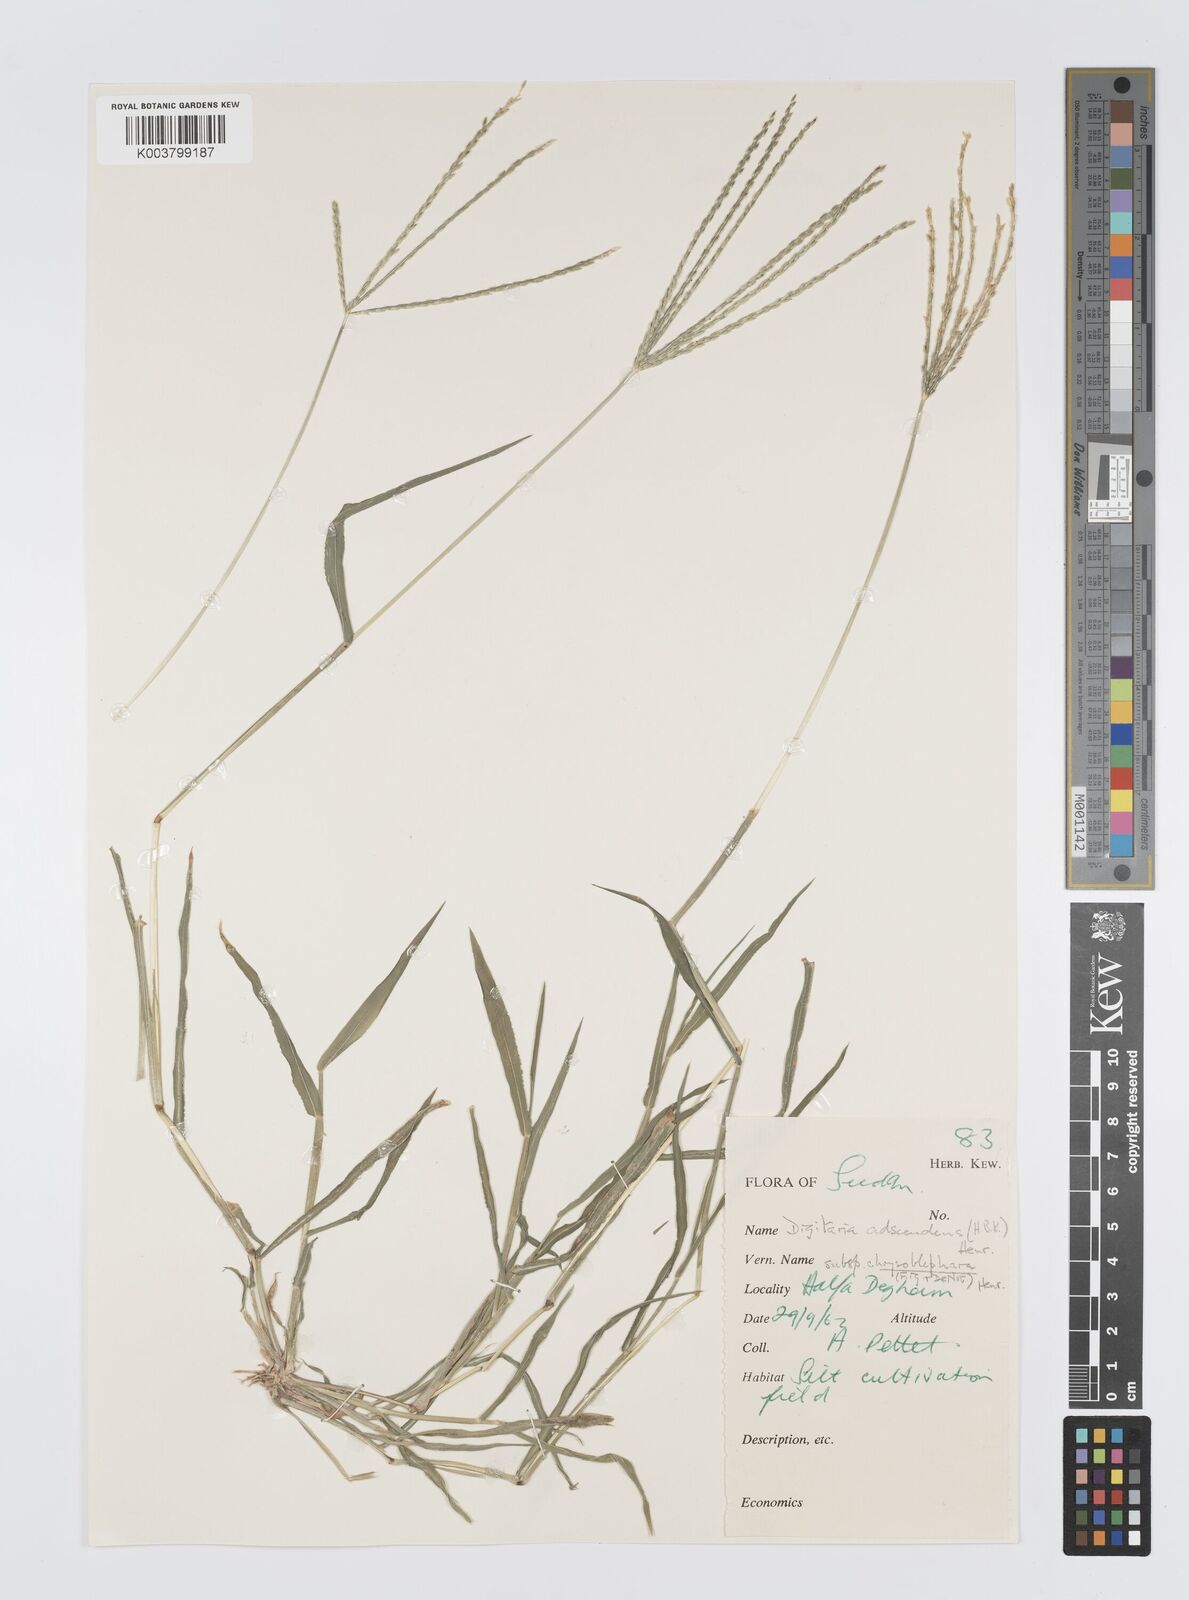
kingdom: Plantae
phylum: Tracheophyta
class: Liliopsida
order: Poales
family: Poaceae
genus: Digitaria
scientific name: Digitaria spec
